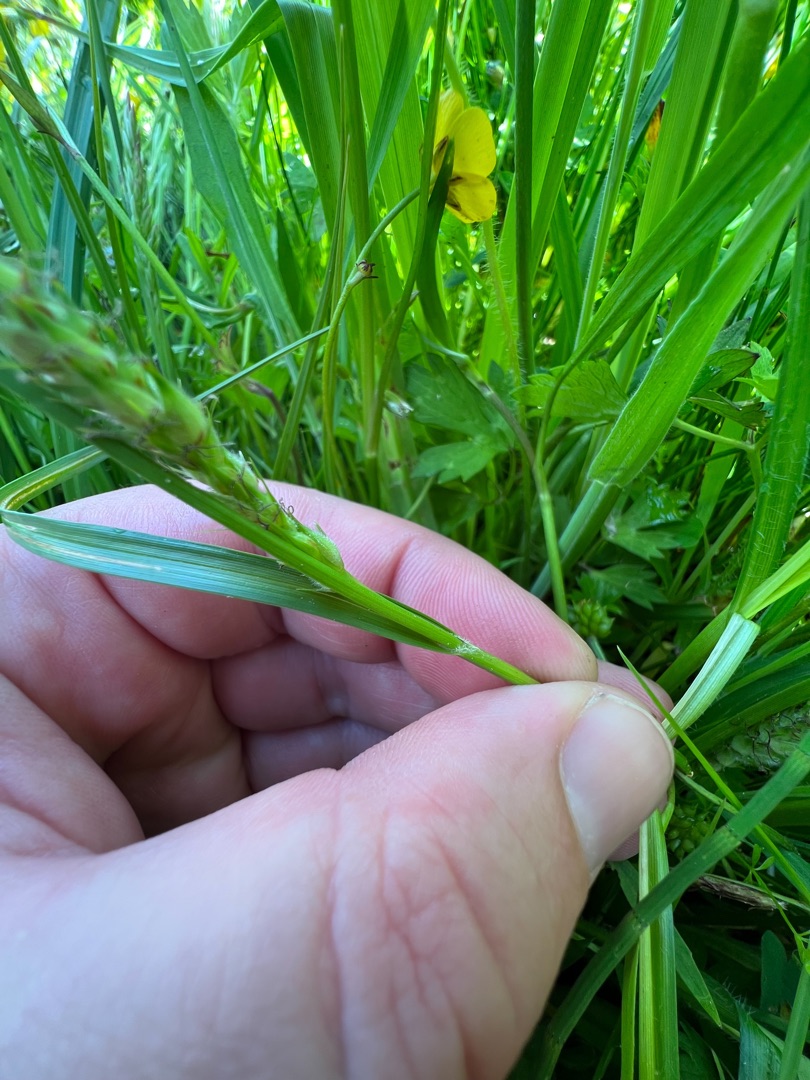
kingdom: Plantae
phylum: Tracheophyta
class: Liliopsida
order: Poales
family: Cyperaceae
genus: Carex
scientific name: Carex hirta
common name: Håret star
